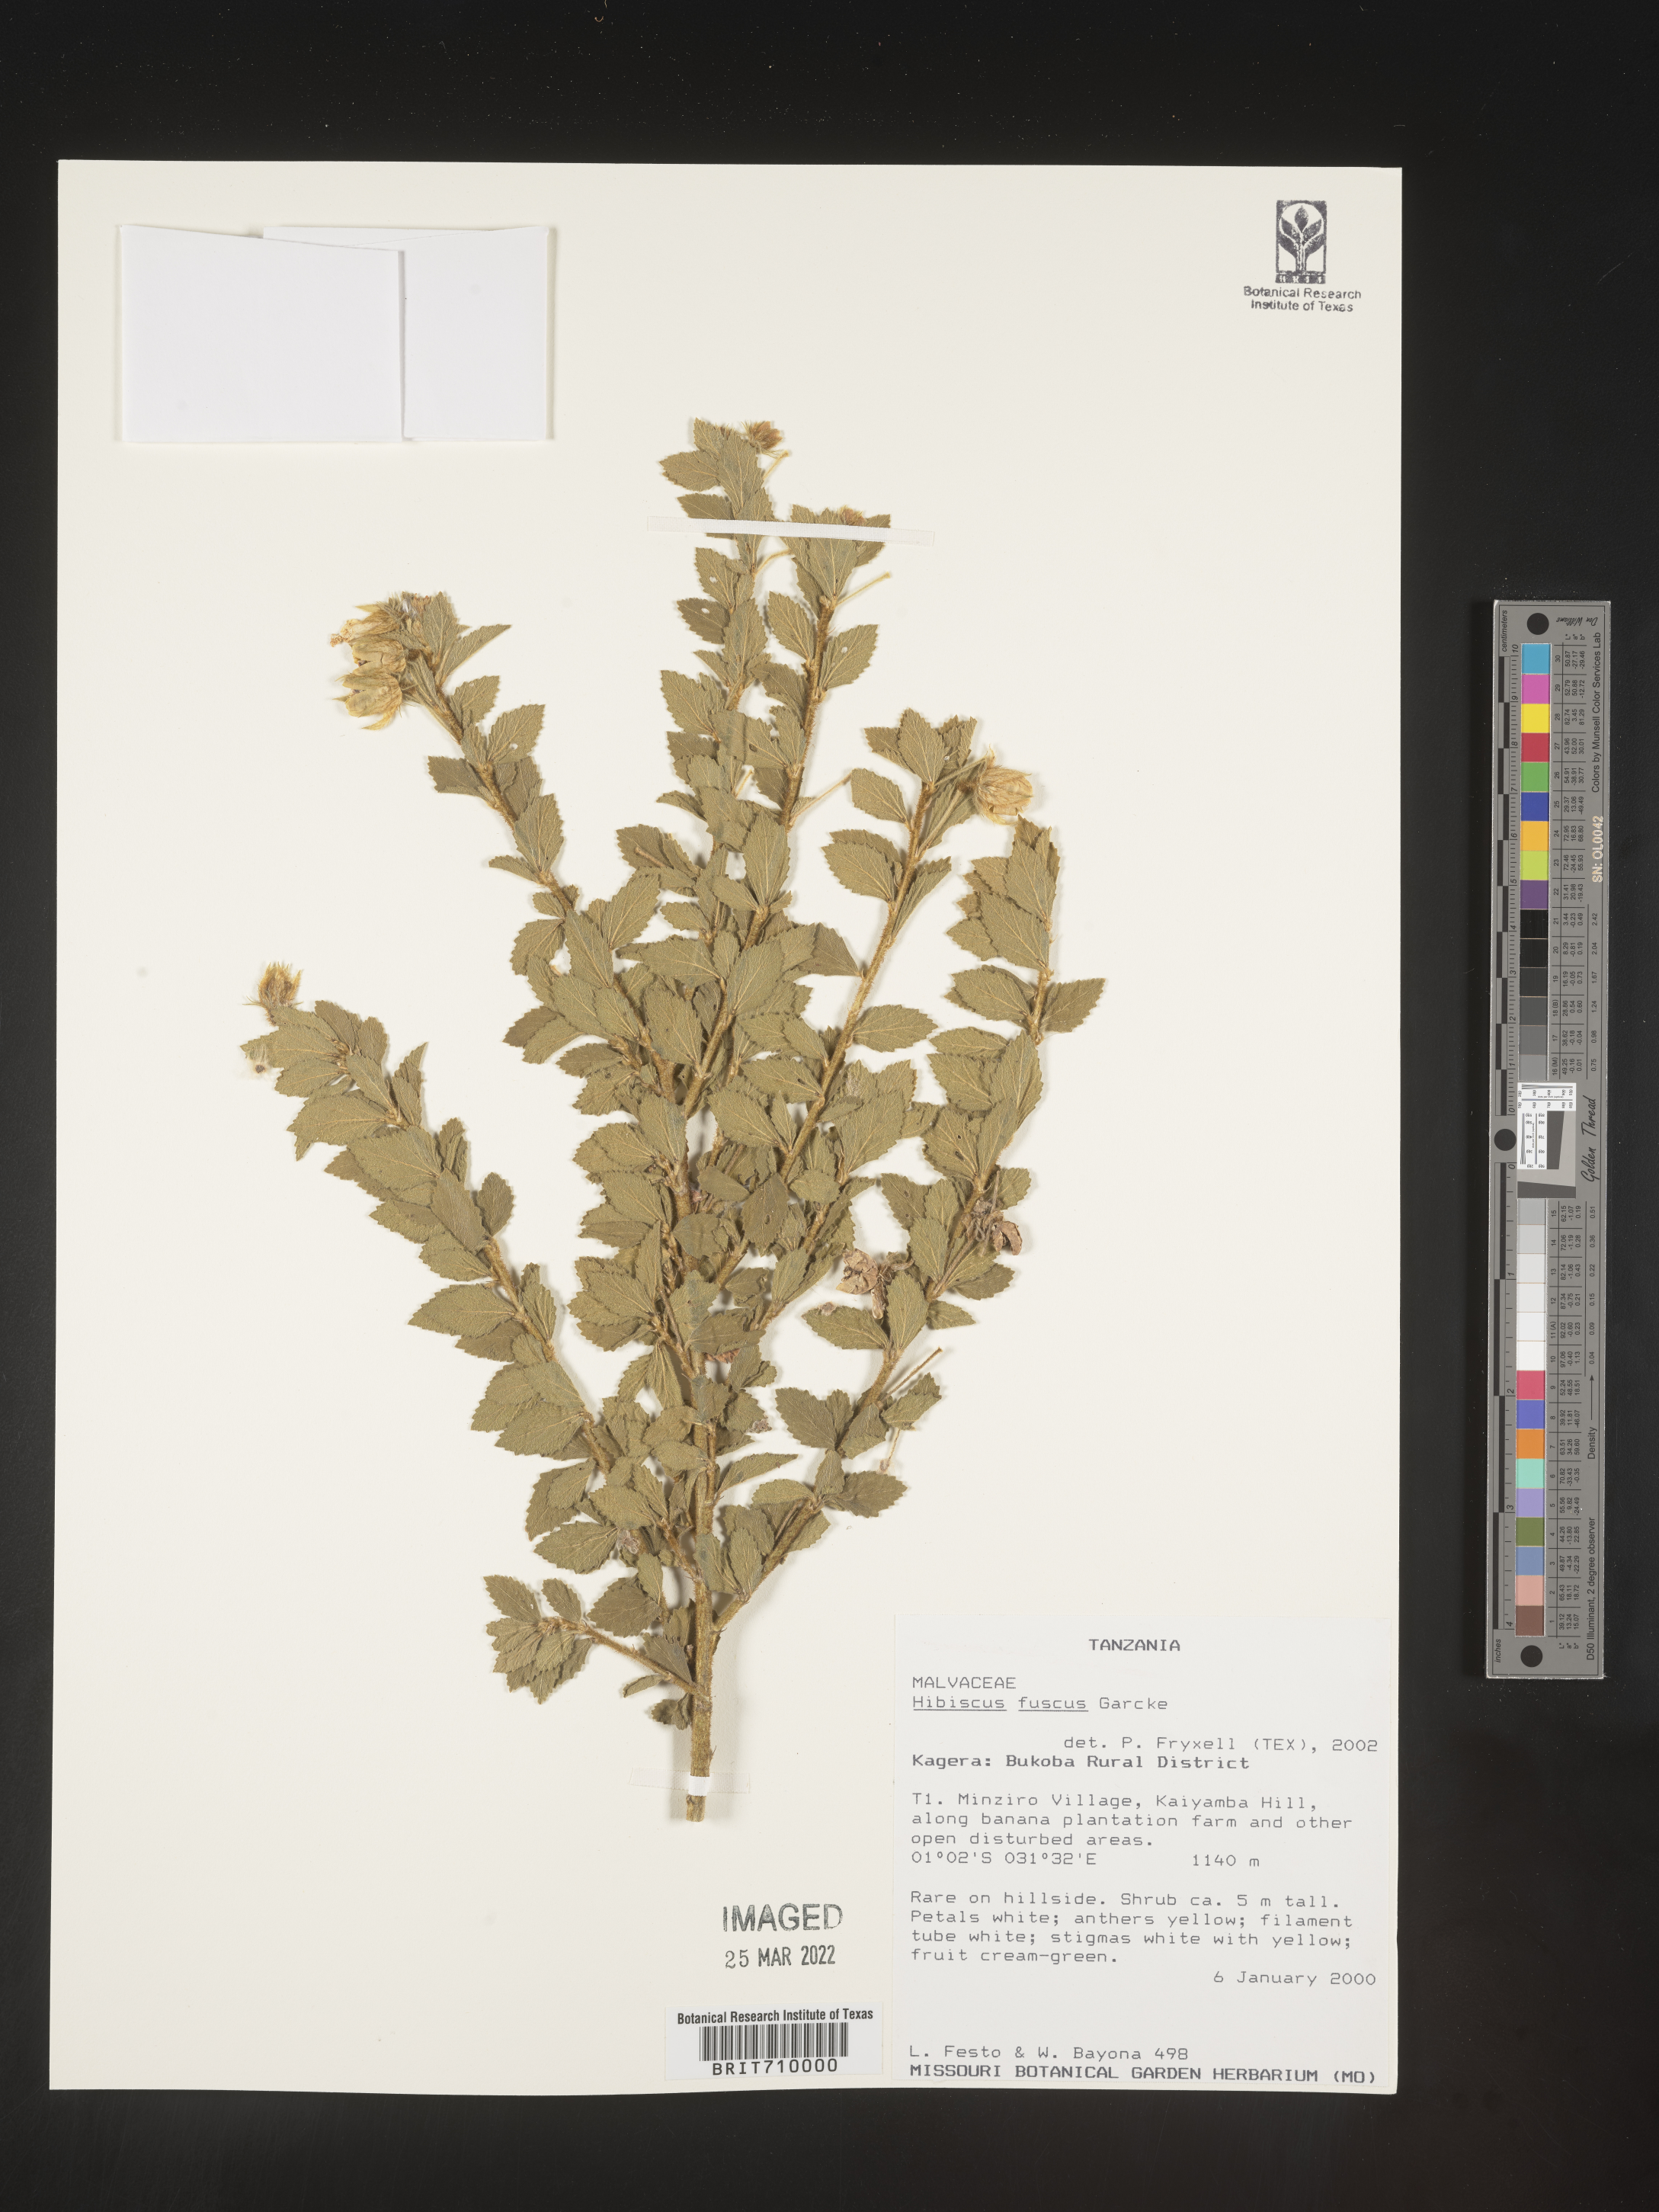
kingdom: Plantae
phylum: Tracheophyta
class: Magnoliopsida
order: Malvales
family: Malvaceae
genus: Hibiscus
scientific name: Hibiscus
